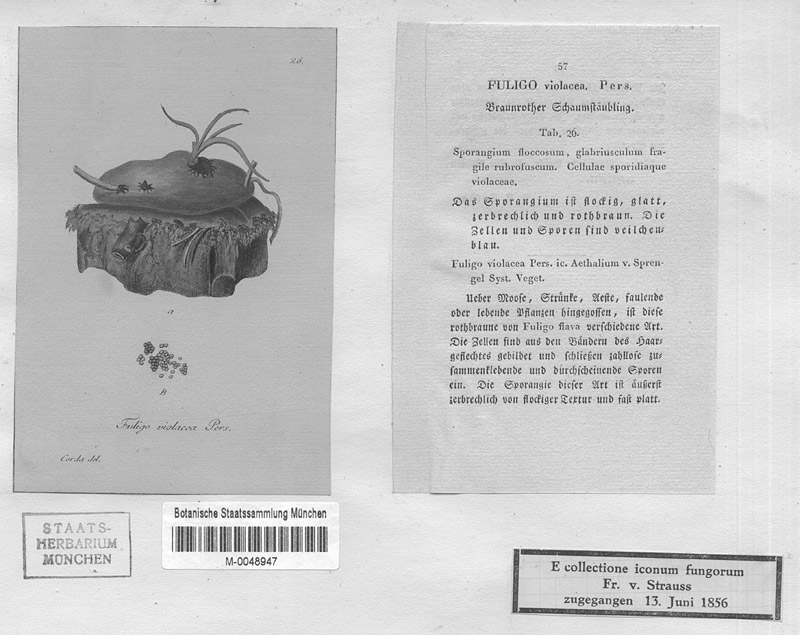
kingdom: Protozoa
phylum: Mycetozoa
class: Myxomycetes
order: Physarales
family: Physaraceae
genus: Fuligo
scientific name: Fuligo leviderma
